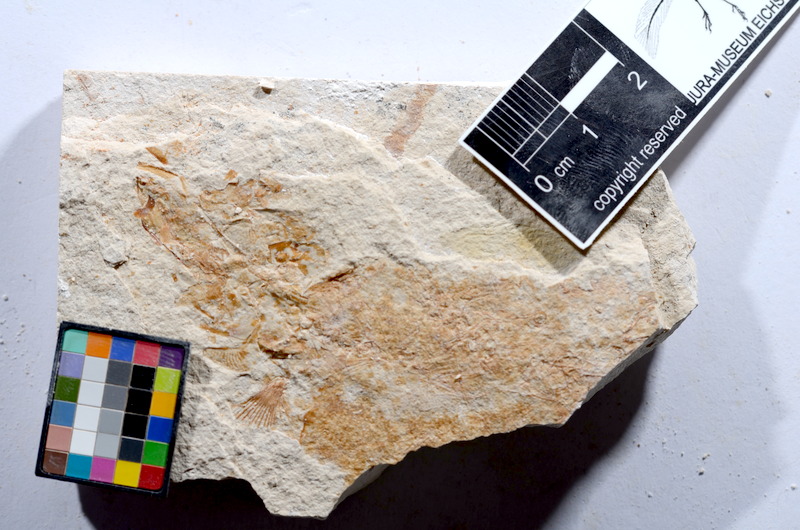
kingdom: Animalia
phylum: Chordata
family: Ascalaboidae
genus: Tharsis
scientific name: Tharsis dubius
